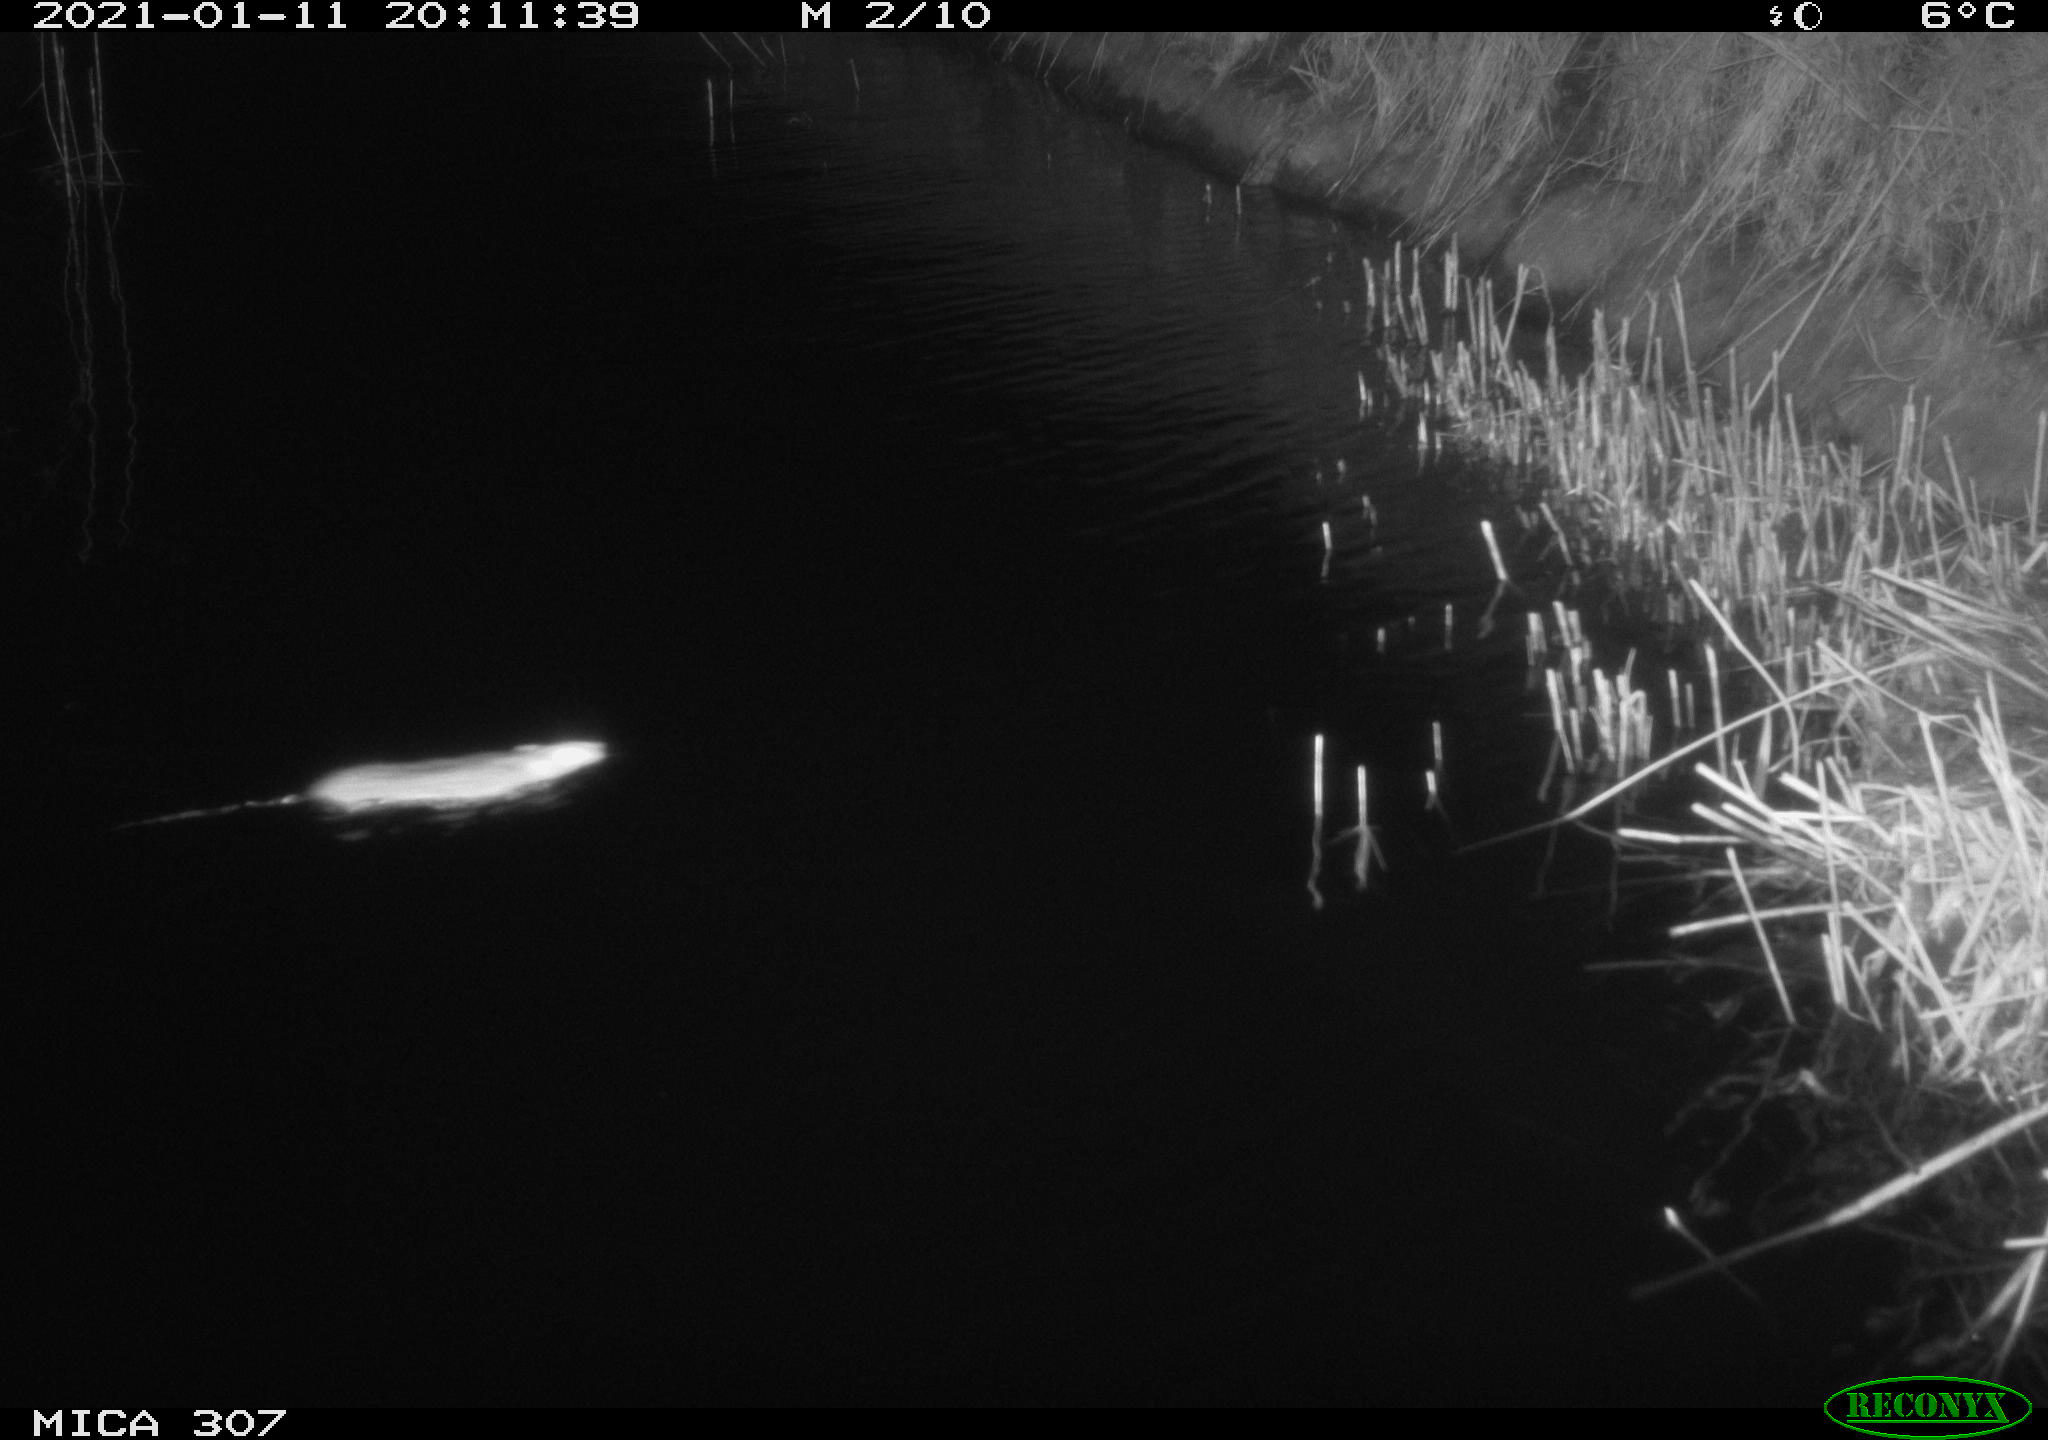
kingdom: Animalia
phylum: Chordata
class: Mammalia
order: Rodentia
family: Muridae
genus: Rattus
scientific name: Rattus norvegicus
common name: Brown rat
